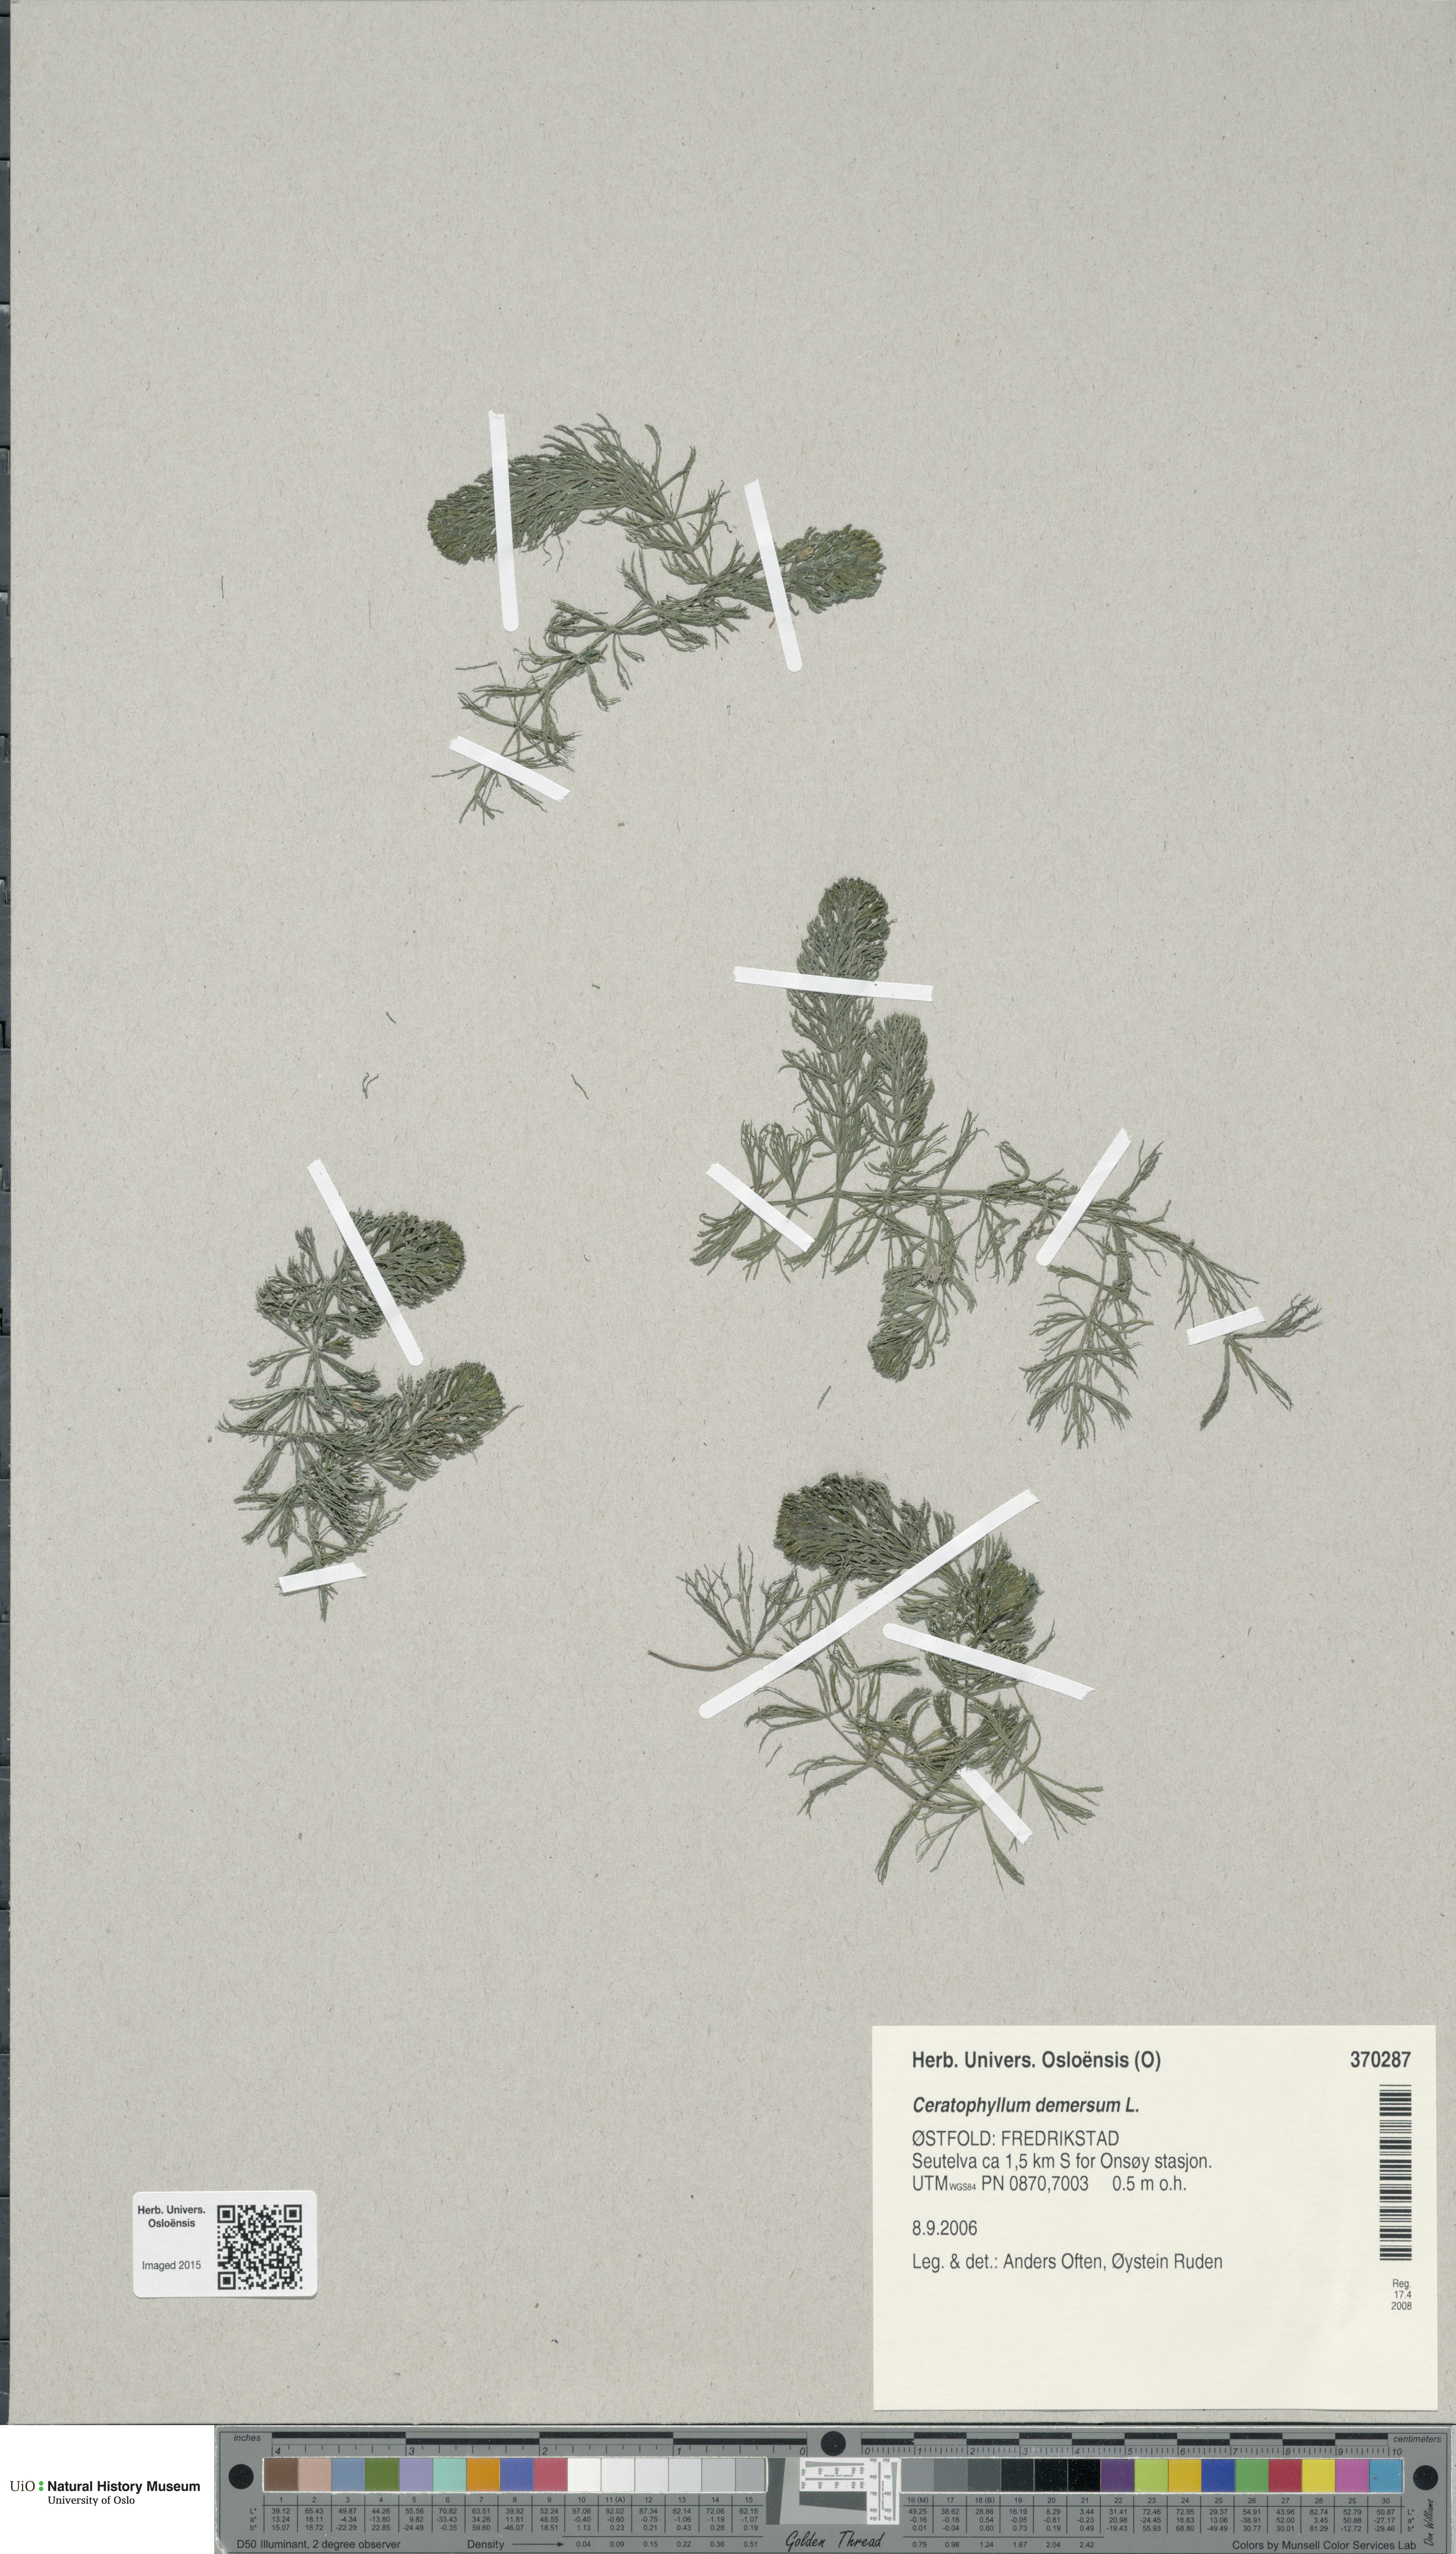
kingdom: Plantae
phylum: Tracheophyta
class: Magnoliopsida
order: Ceratophyllales
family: Ceratophyllaceae
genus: Ceratophyllum
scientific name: Ceratophyllum demersum
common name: Rigid hornwort
